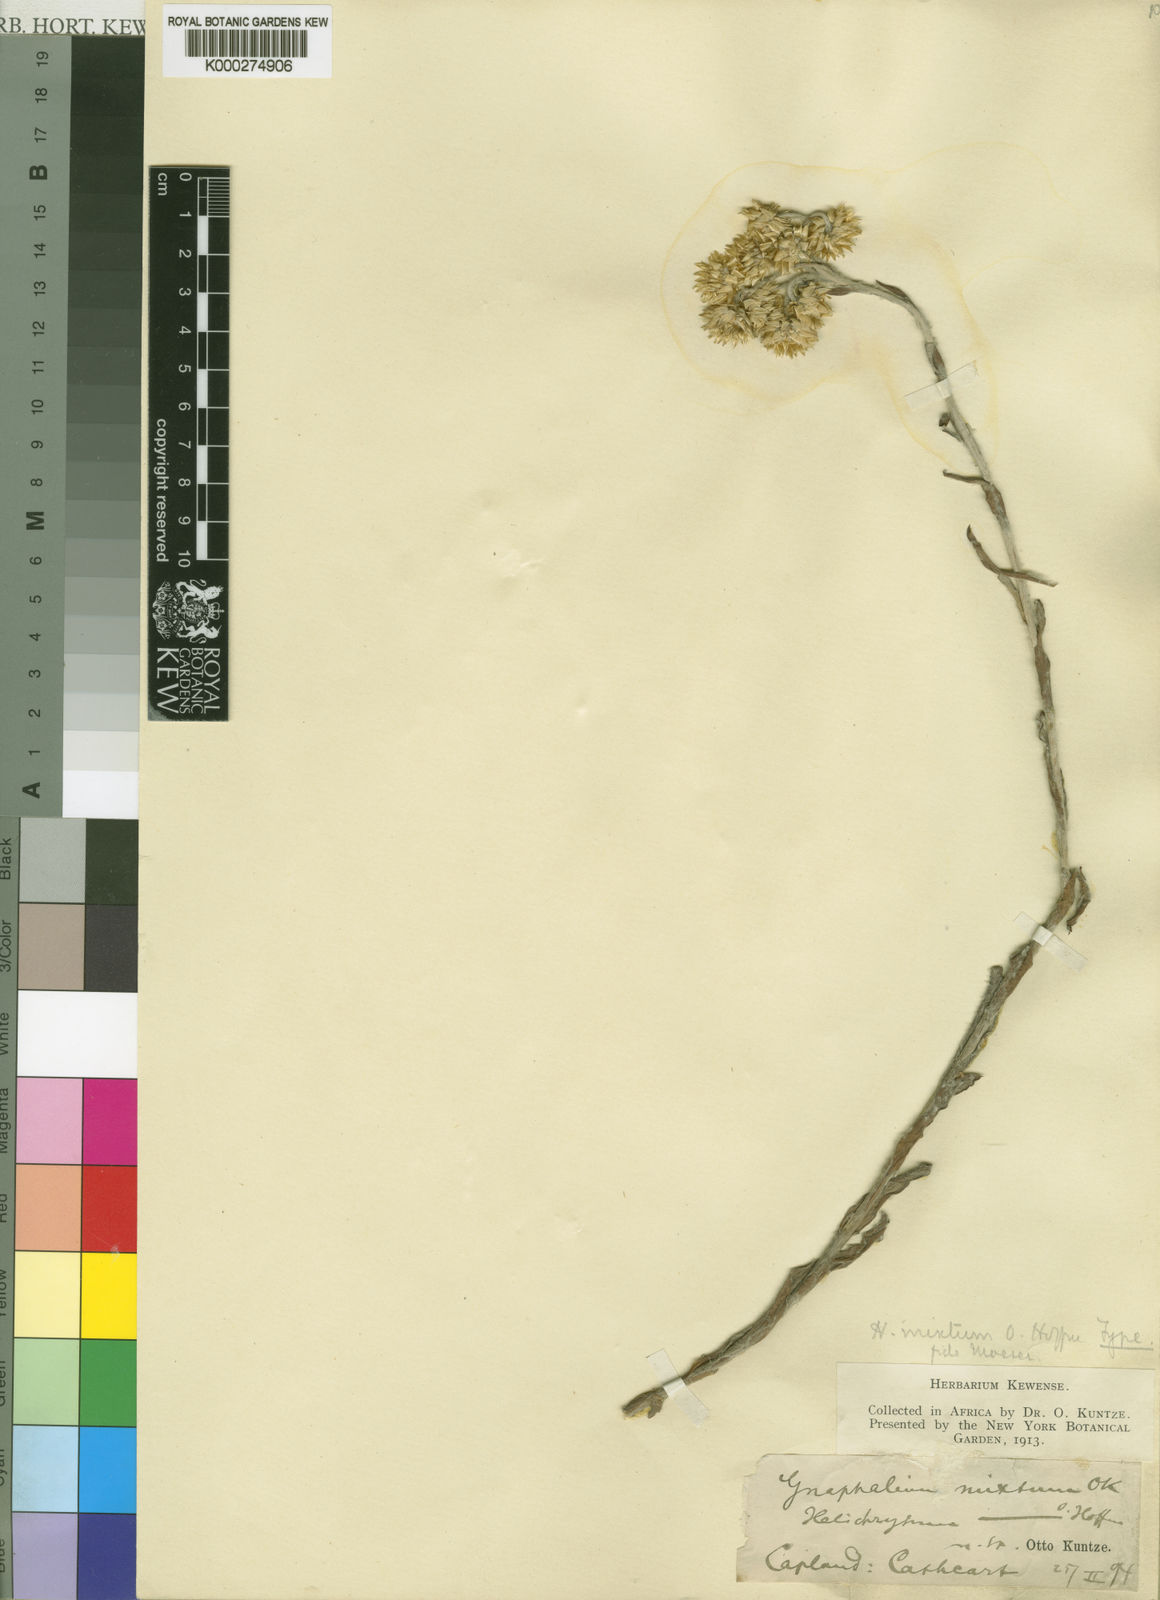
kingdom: Plantae
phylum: Tracheophyta
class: Magnoliopsida
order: Asterales
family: Asteraceae
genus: Helichrysum
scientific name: Helichrysum mixtum
